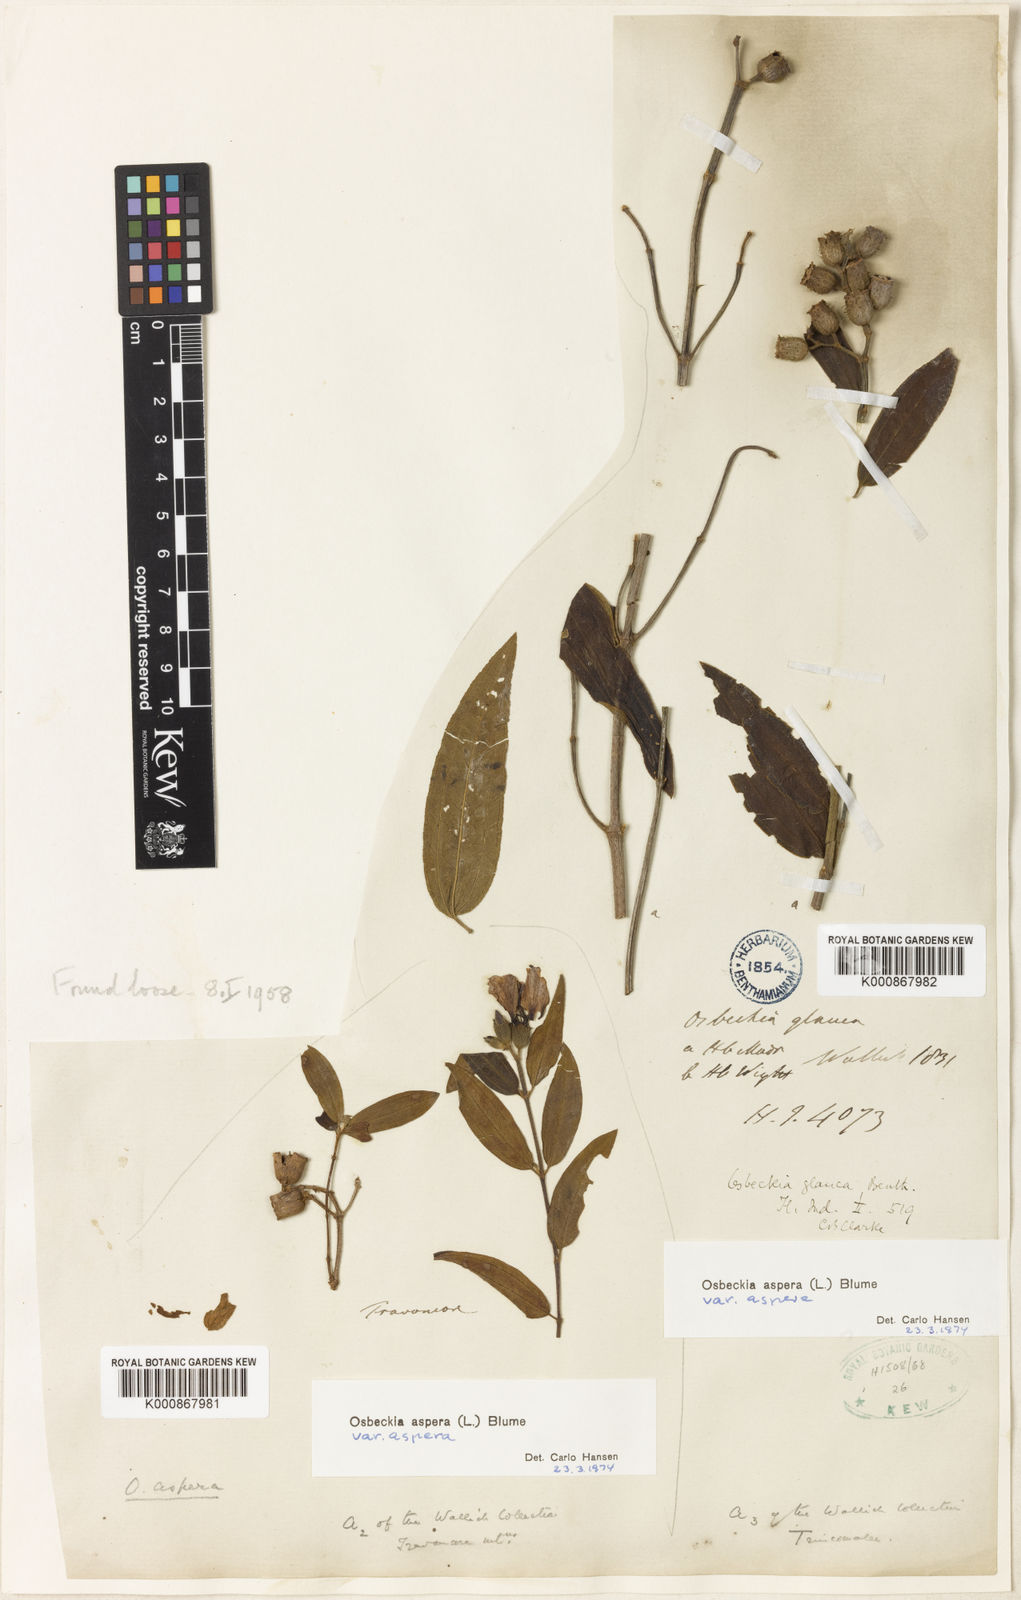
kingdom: Plantae
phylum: Tracheophyta
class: Magnoliopsida
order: Myrtales
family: Melastomataceae
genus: Osbeckia
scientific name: Osbeckia aspera
